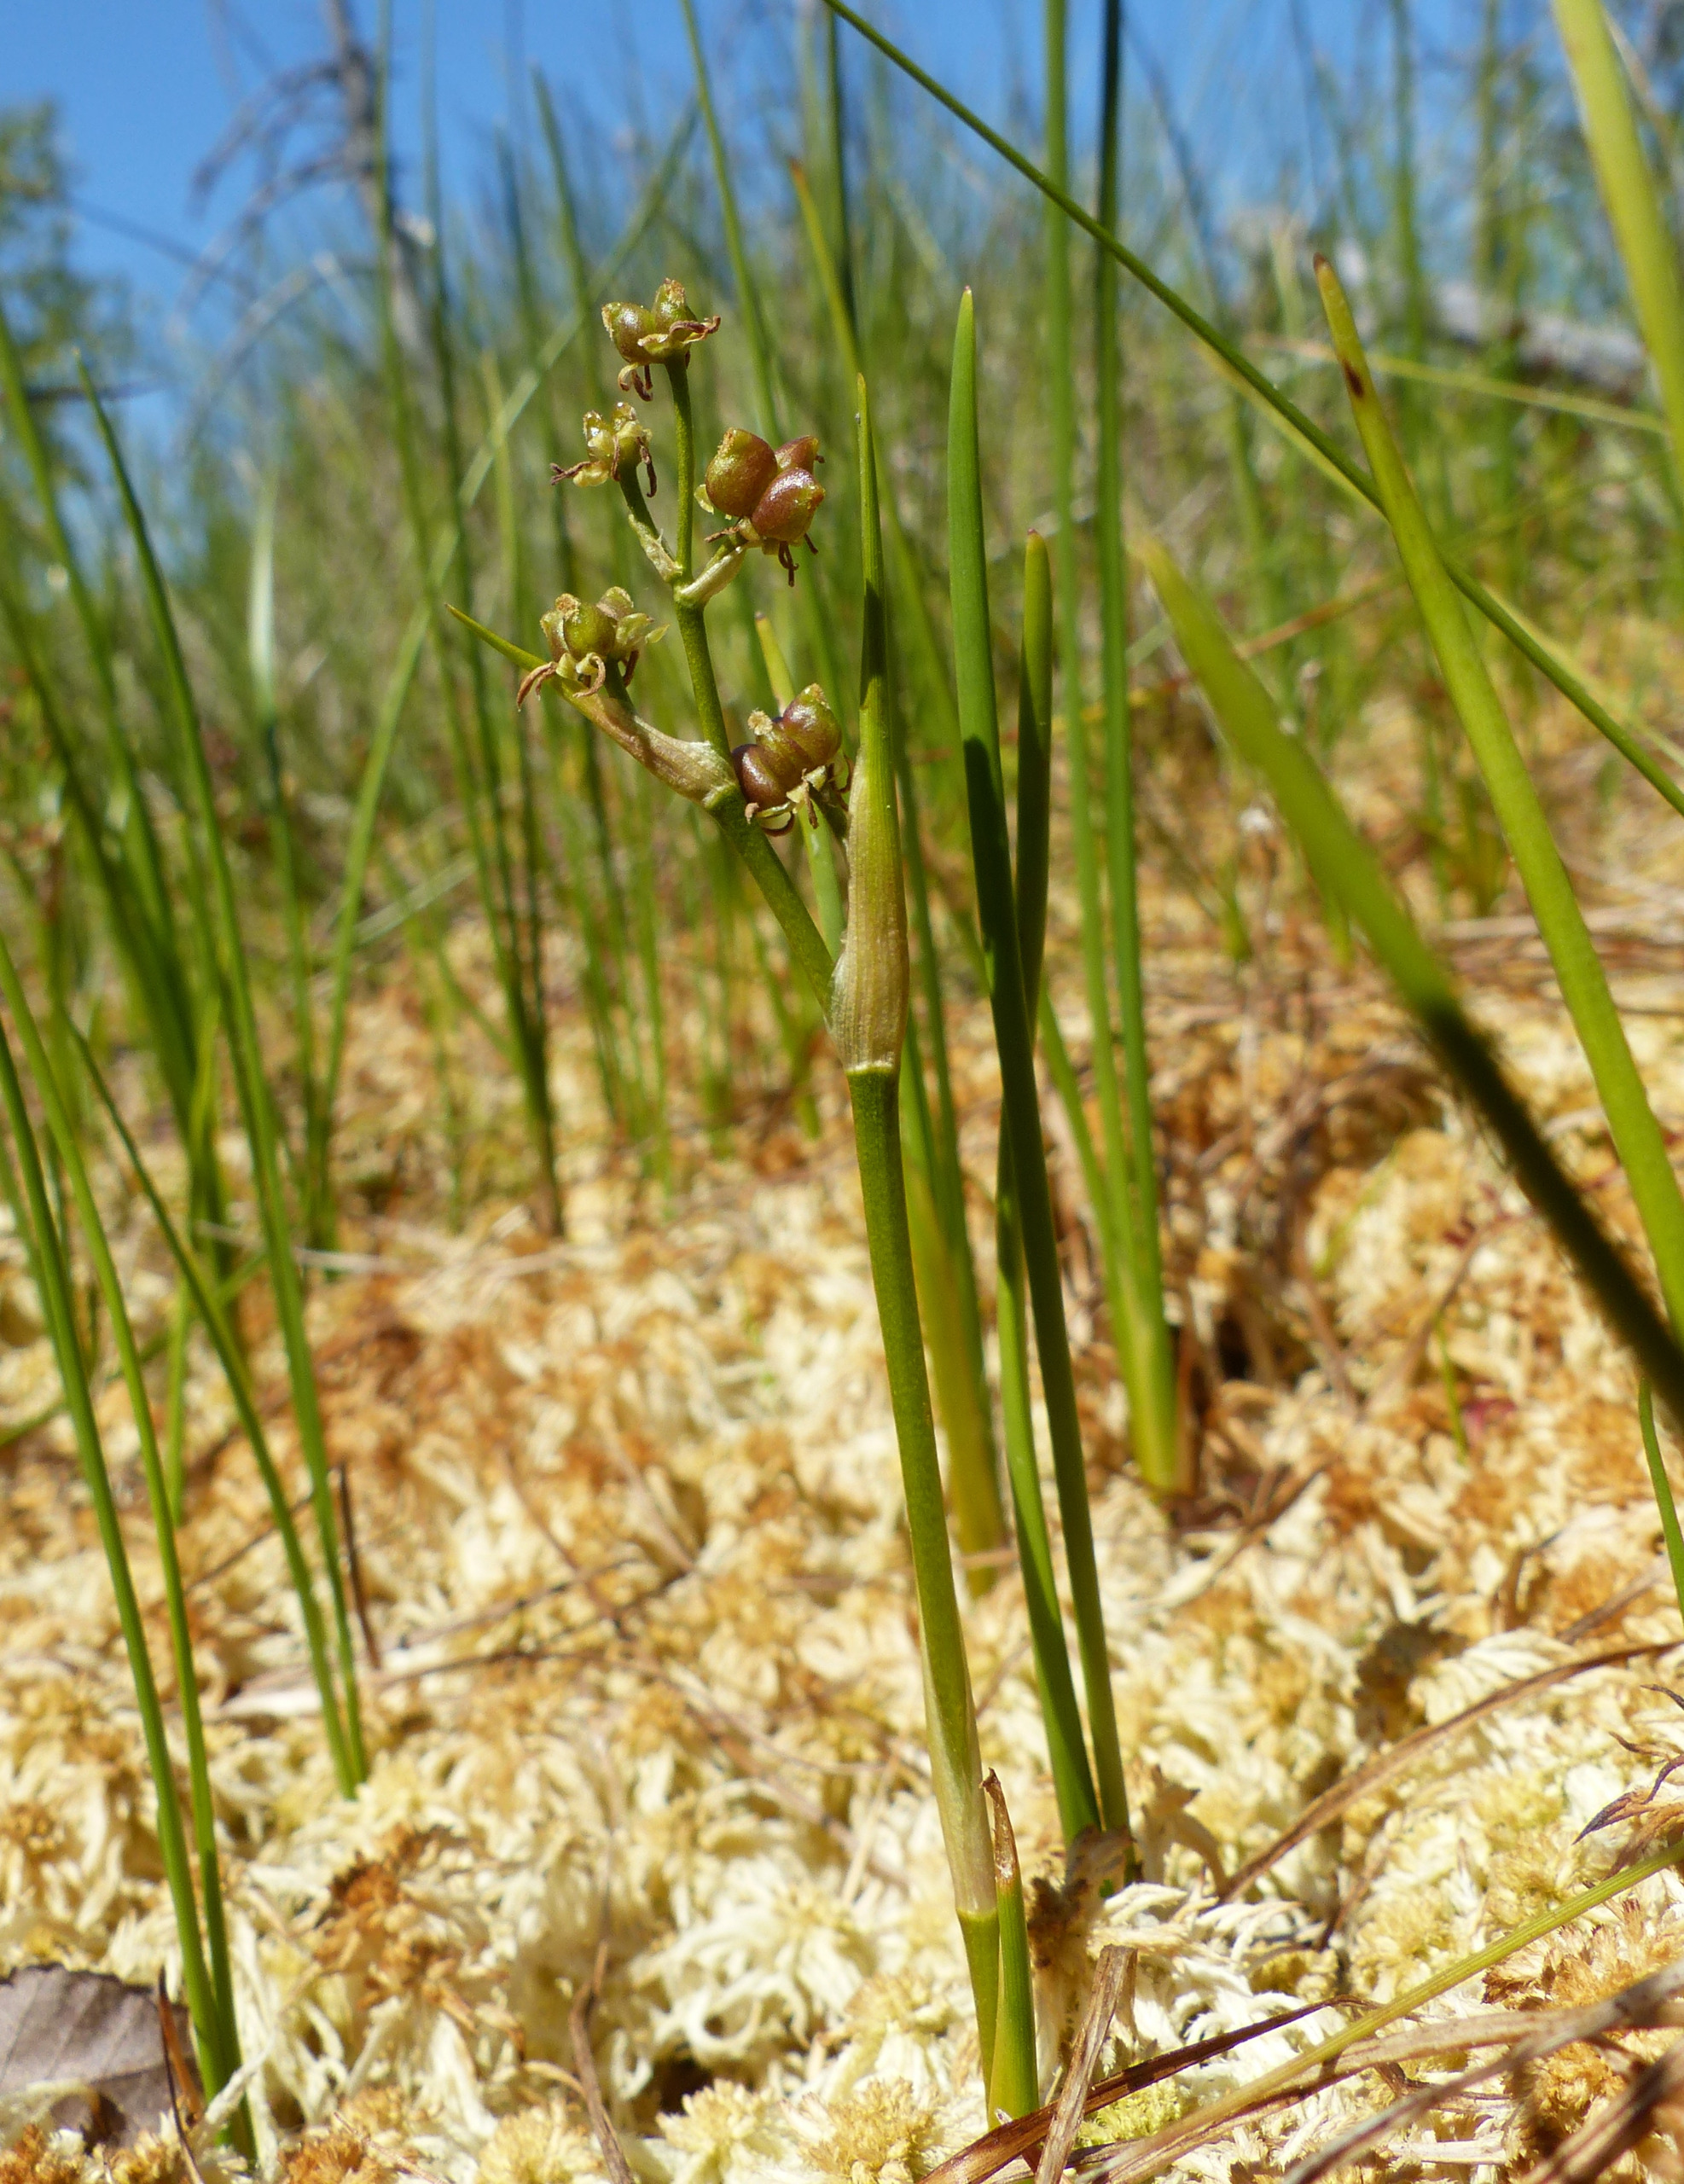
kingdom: Plantae
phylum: Tracheophyta
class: Liliopsida
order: Alismatales
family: Scheuchzeriaceae
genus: Scheuchzeria
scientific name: Scheuchzeria palustris
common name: Blomstersiv
